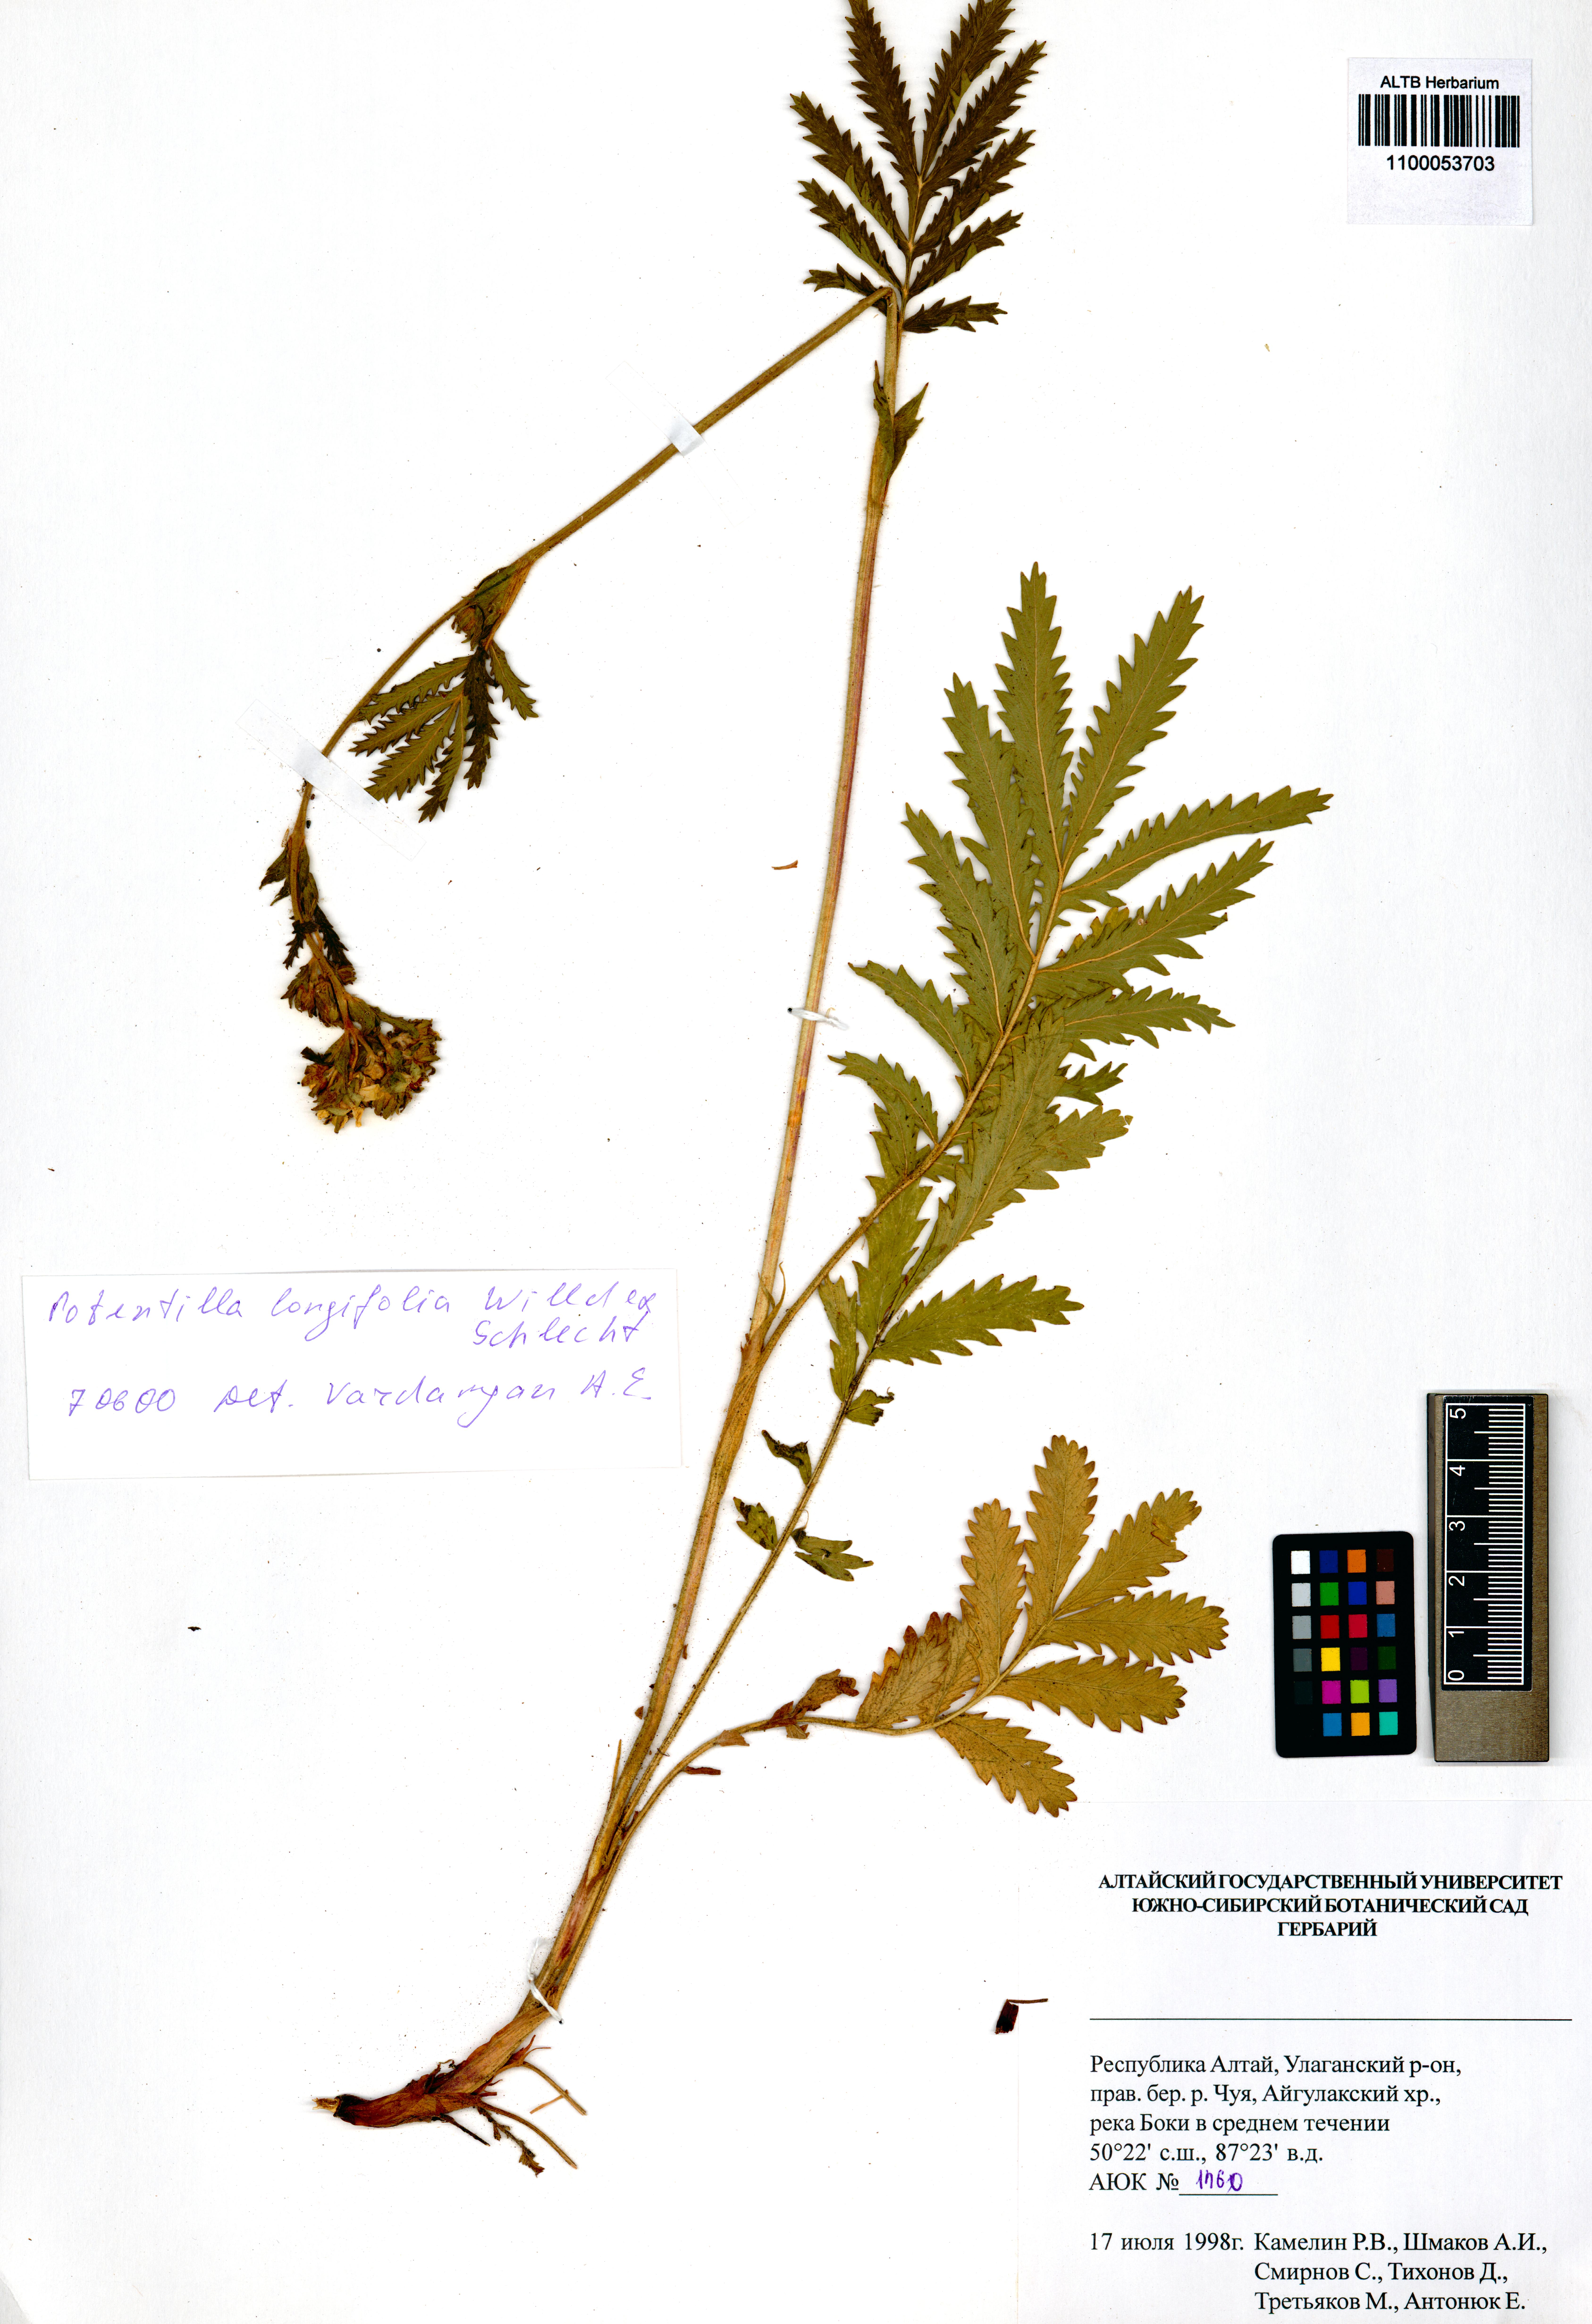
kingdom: Plantae
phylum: Tracheophyta
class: Magnoliopsida
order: Rosales
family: Rosaceae
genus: Potentilla
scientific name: Potentilla longifolia
